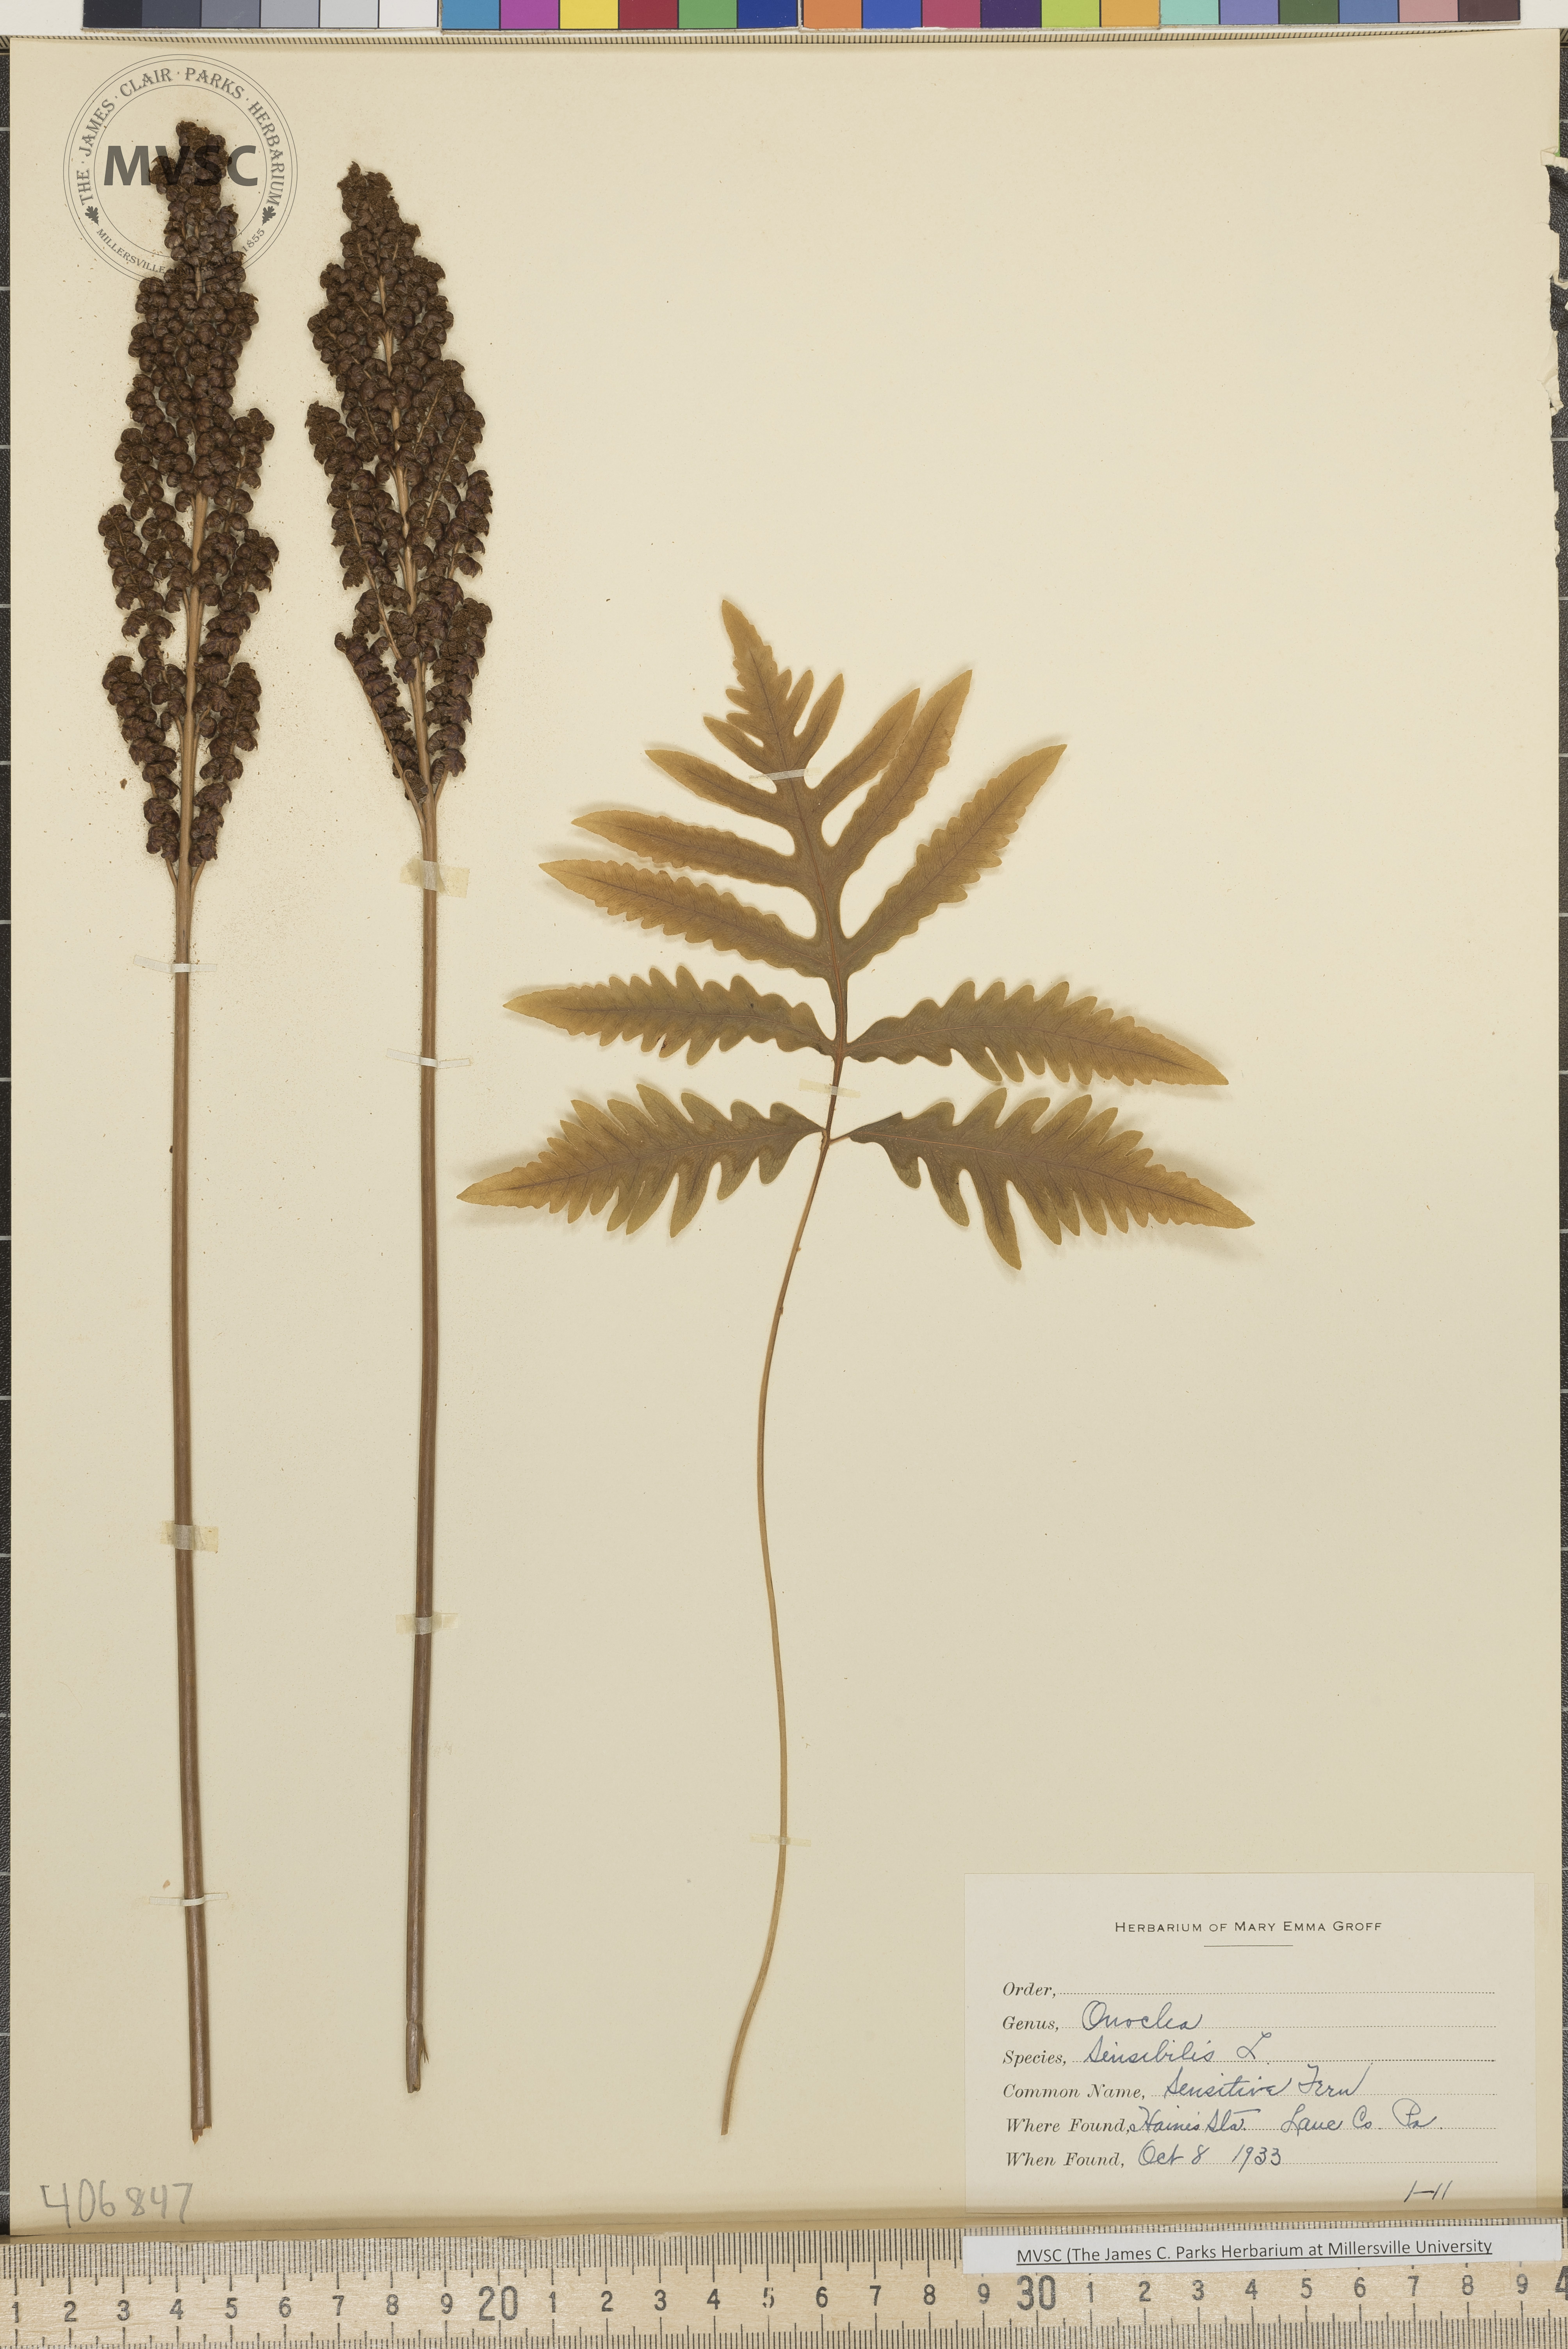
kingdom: Plantae
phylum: Tracheophyta
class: Polypodiopsida
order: Polypodiales
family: Onocleaceae
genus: Onoclea
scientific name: Onoclea sensibilis
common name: Sensitive fern
